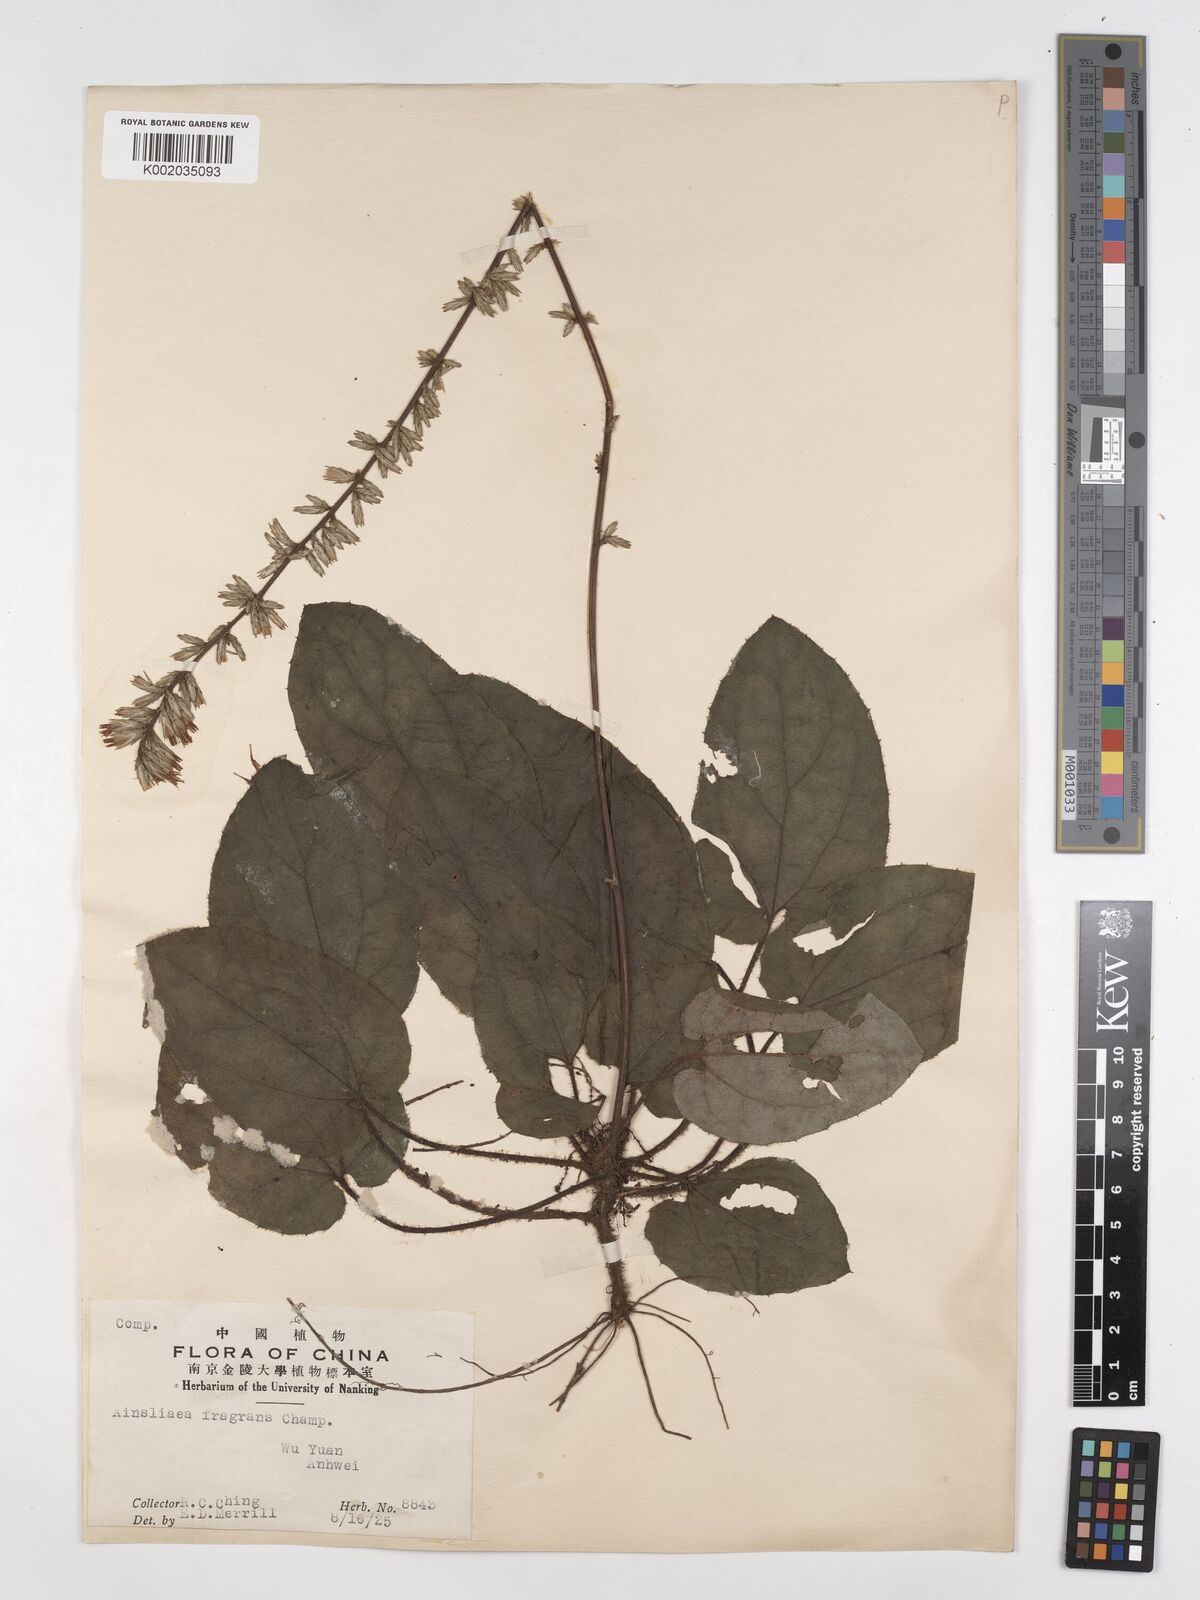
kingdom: Plantae
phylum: Tracheophyta
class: Magnoliopsida
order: Asterales
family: Asteraceae
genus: Ainsliaea
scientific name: Ainsliaea fragrans
